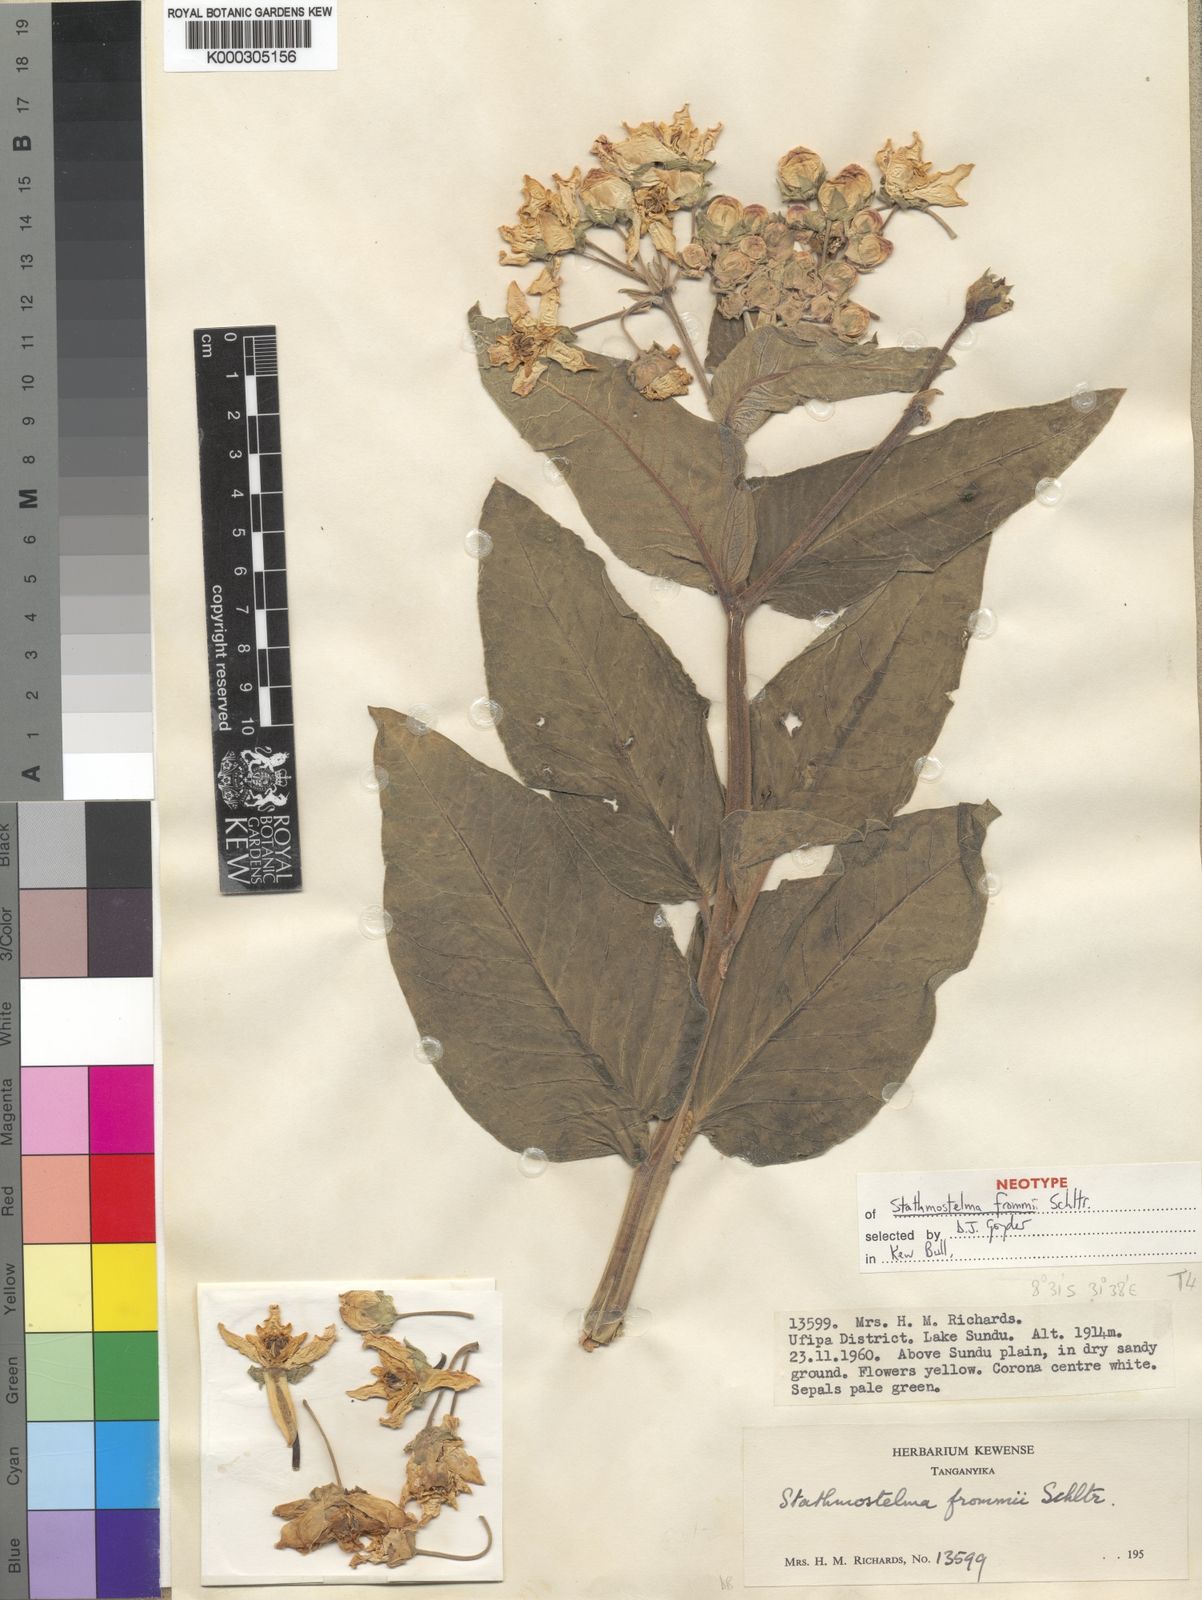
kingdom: Plantae
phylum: Tracheophyta
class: Magnoliopsida
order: Gentianales
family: Apocynaceae
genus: Stathmostelma
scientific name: Stathmostelma spectabile
